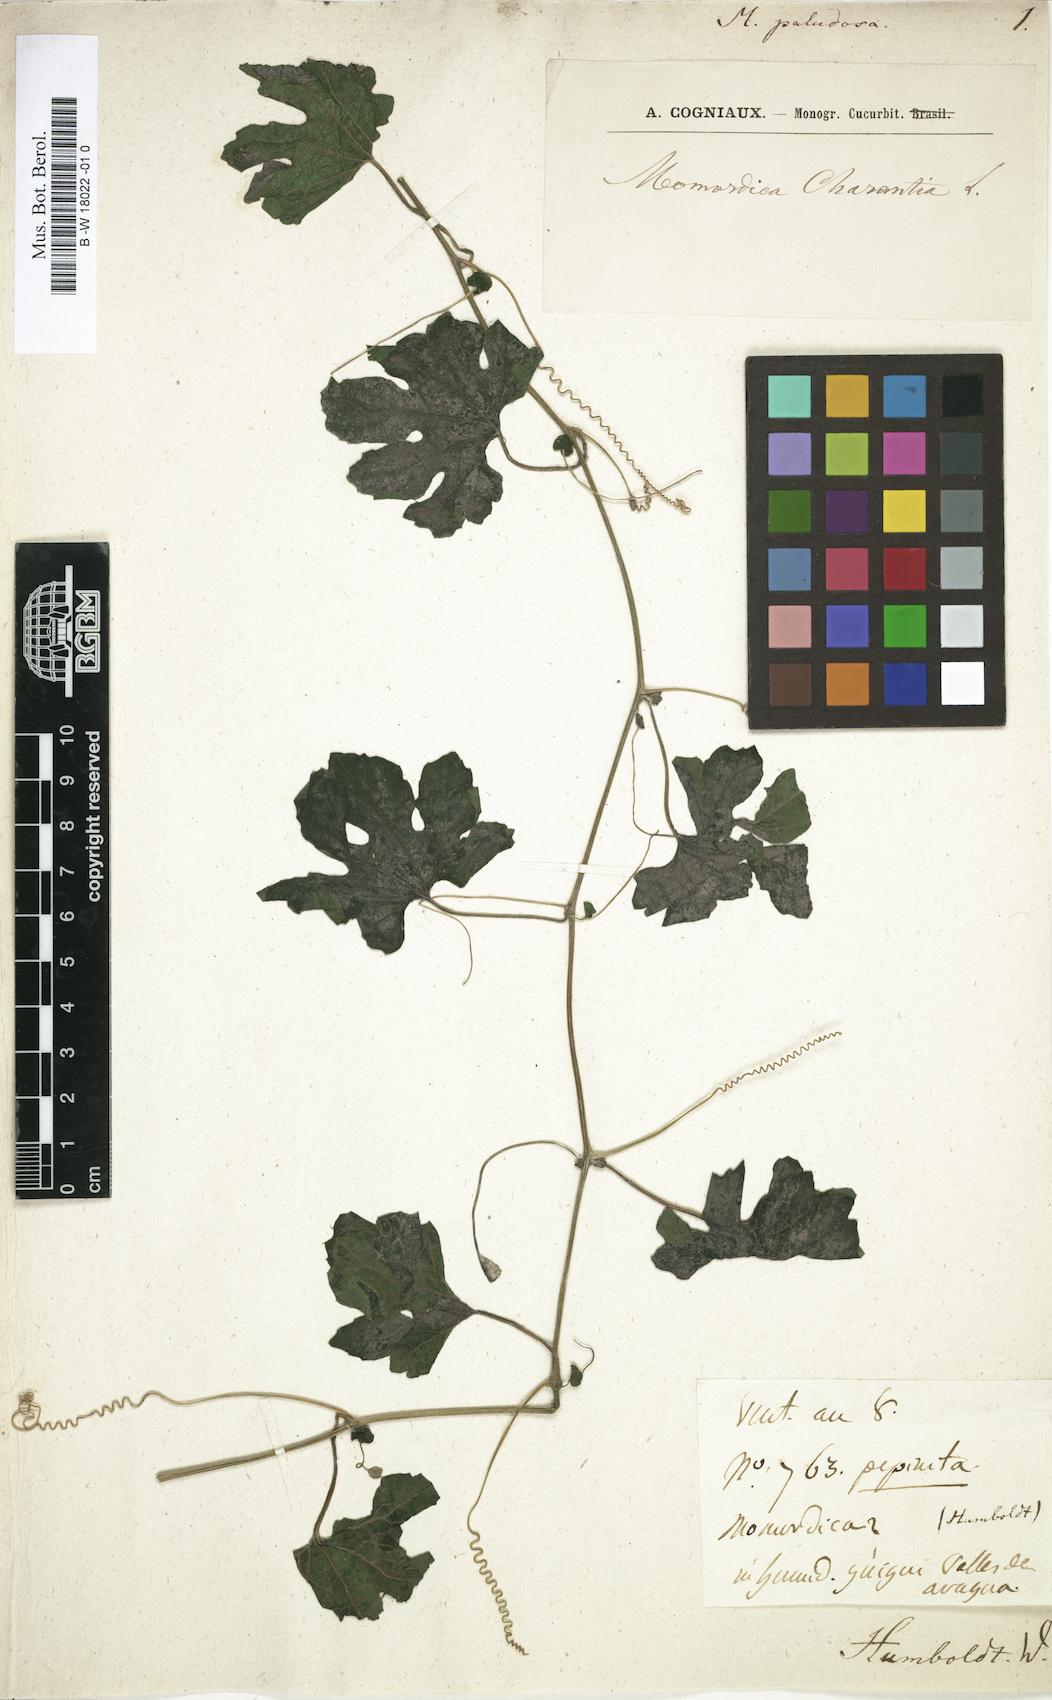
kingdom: Plantae
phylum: Tracheophyta
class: Magnoliopsida
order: Cucurbitales
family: Cucurbitaceae
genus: Momordica
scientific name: Momordica
